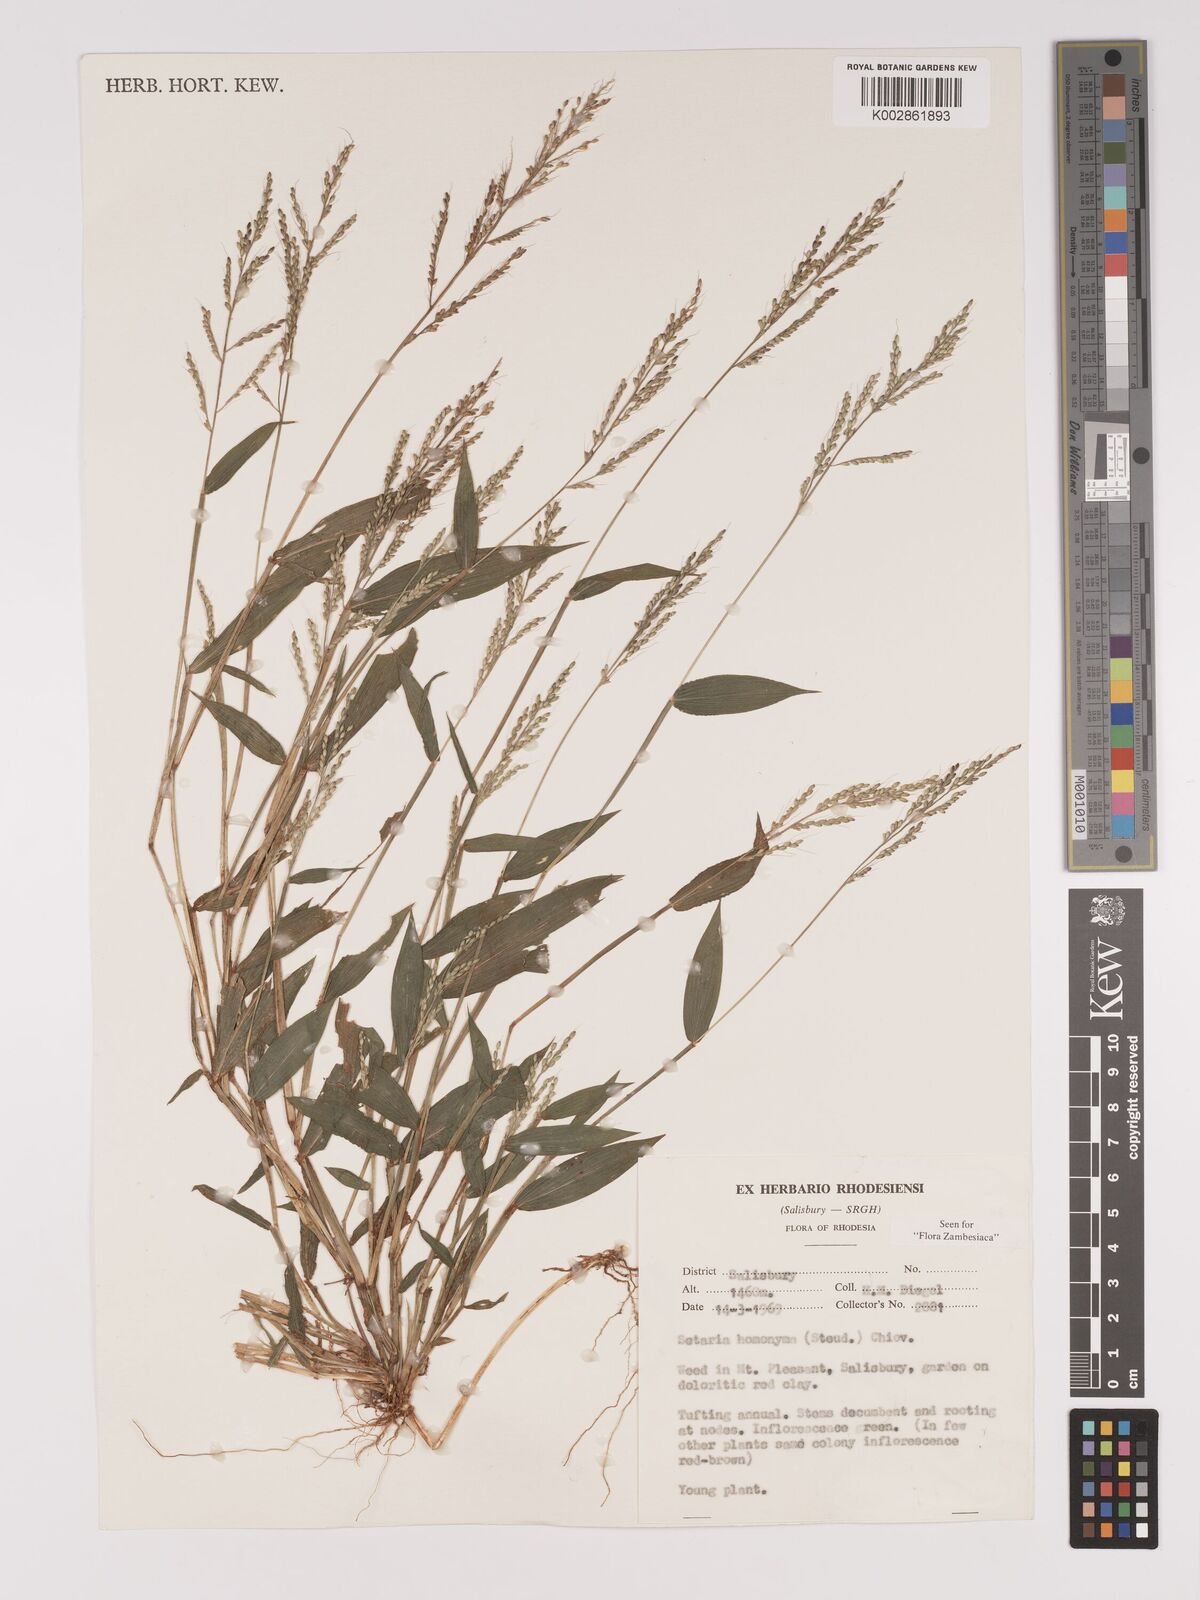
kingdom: Plantae
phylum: Tracheophyta
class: Liliopsida
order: Poales
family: Poaceae
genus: Setaria
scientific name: Setaria homonyma
